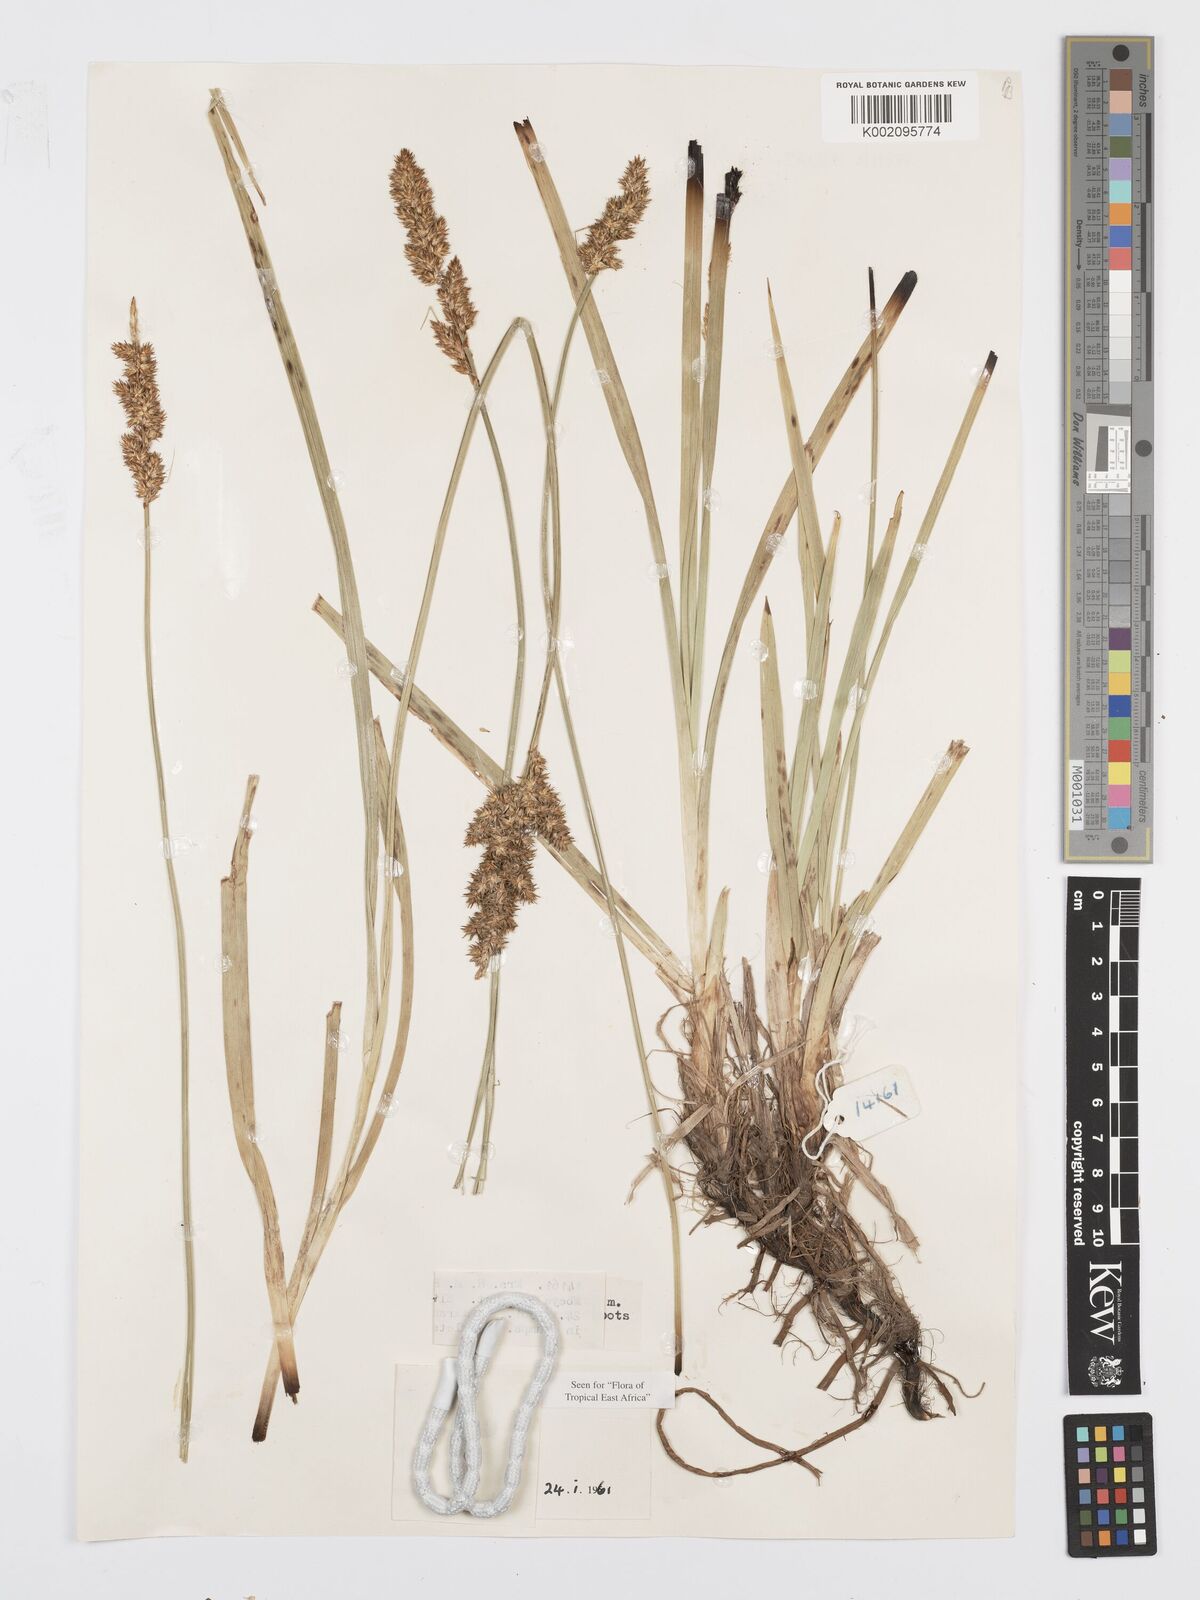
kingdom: Plantae
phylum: Tracheophyta
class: Liliopsida
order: Poales
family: Cyperaceae
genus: Carex
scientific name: Carex lycurus
